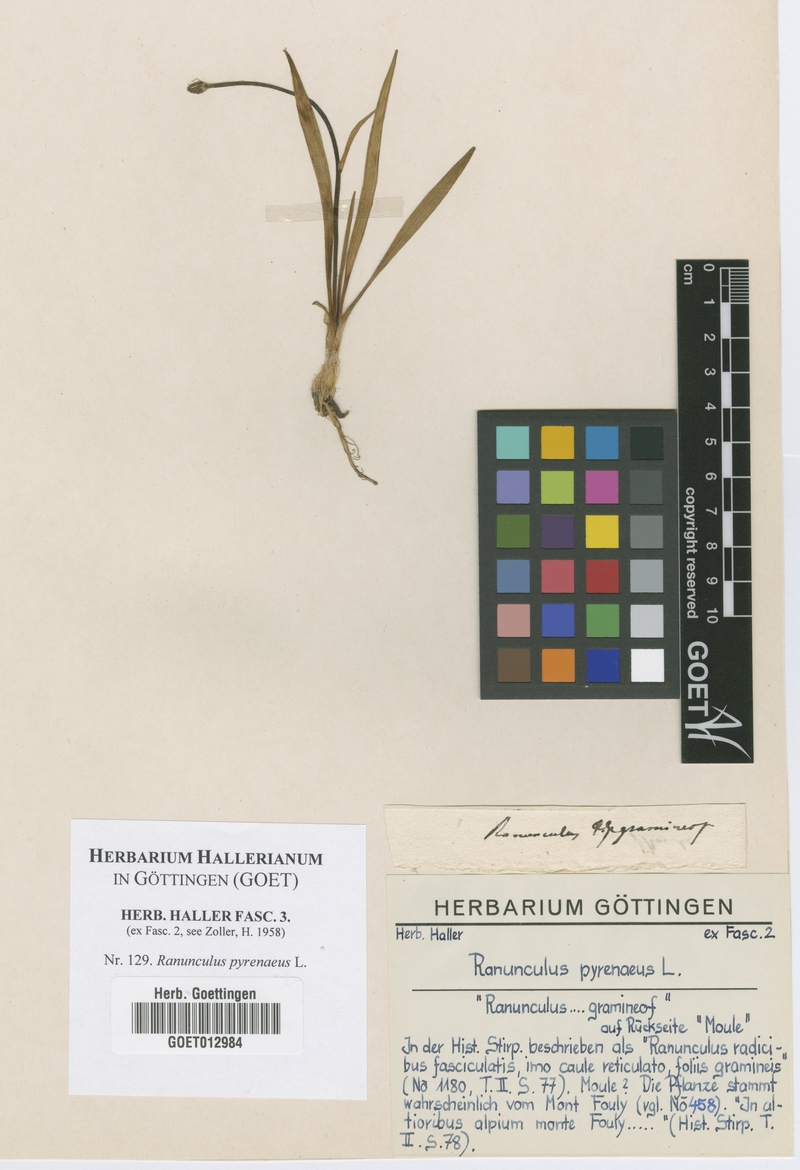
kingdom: Plantae
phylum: Tracheophyta
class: Magnoliopsida
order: Ranunculales
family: Ranunculaceae
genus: Ranunculus
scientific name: Ranunculus pyrenaeus
